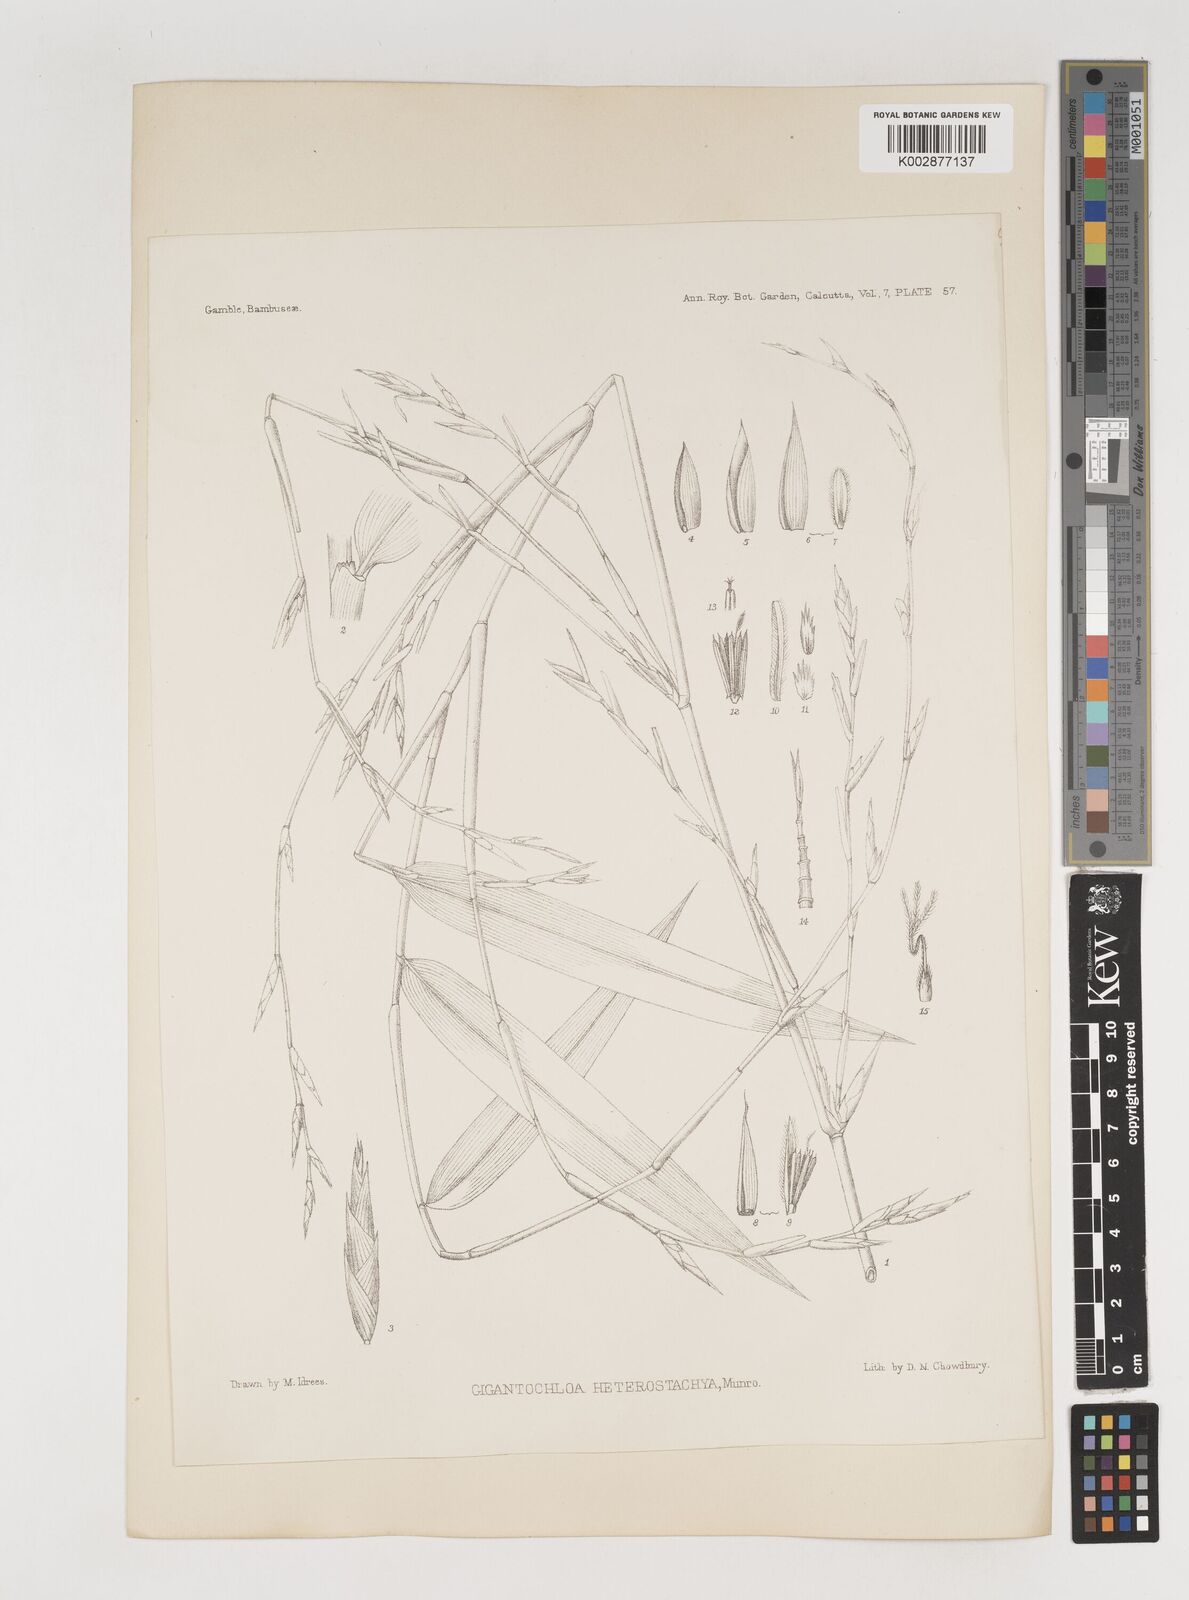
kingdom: Plantae
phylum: Tracheophyta
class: Liliopsida
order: Poales
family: Poaceae
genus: Bambusa
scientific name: Bambusa heterostachya
